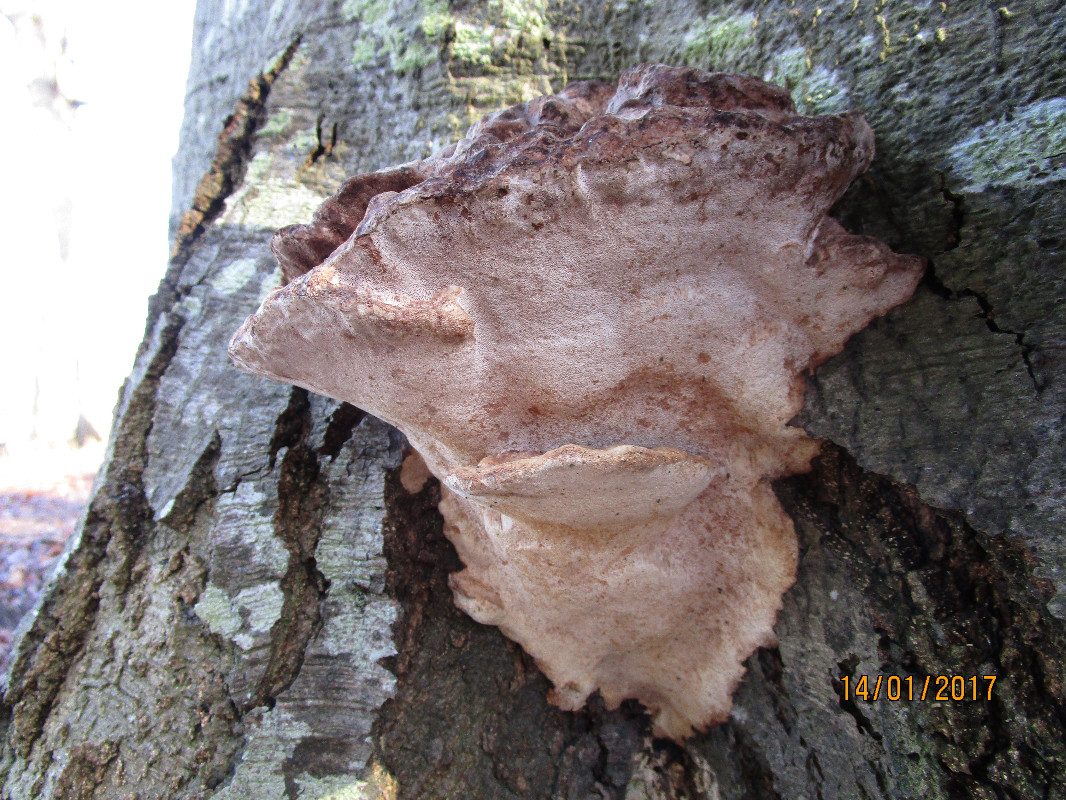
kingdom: Fungi
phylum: Basidiomycota
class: Agaricomycetes
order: Polyporales
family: Polyporaceae
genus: Vanderbylia
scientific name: Vanderbylia fraxinea
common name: stor kanelporesvamp
